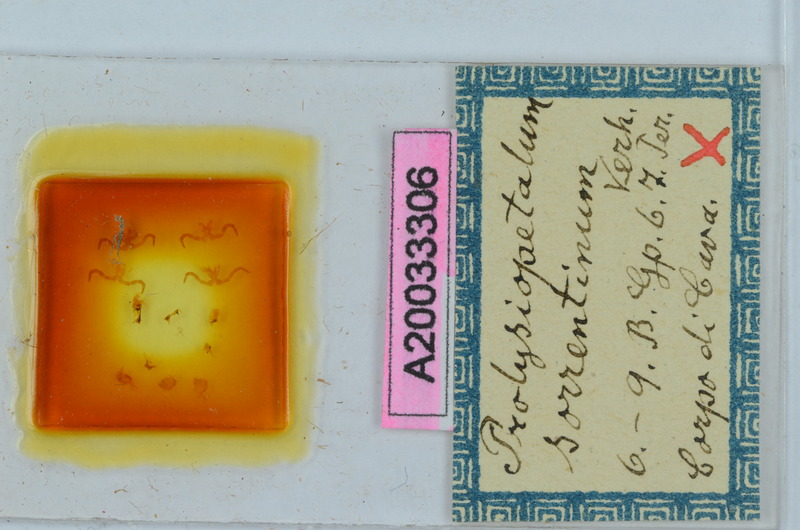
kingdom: Animalia
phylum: Arthropoda
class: Diplopoda
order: Callipodida
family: Schizopetalidae
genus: Prolysiopetalum
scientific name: Prolysiopetalum apulicum
